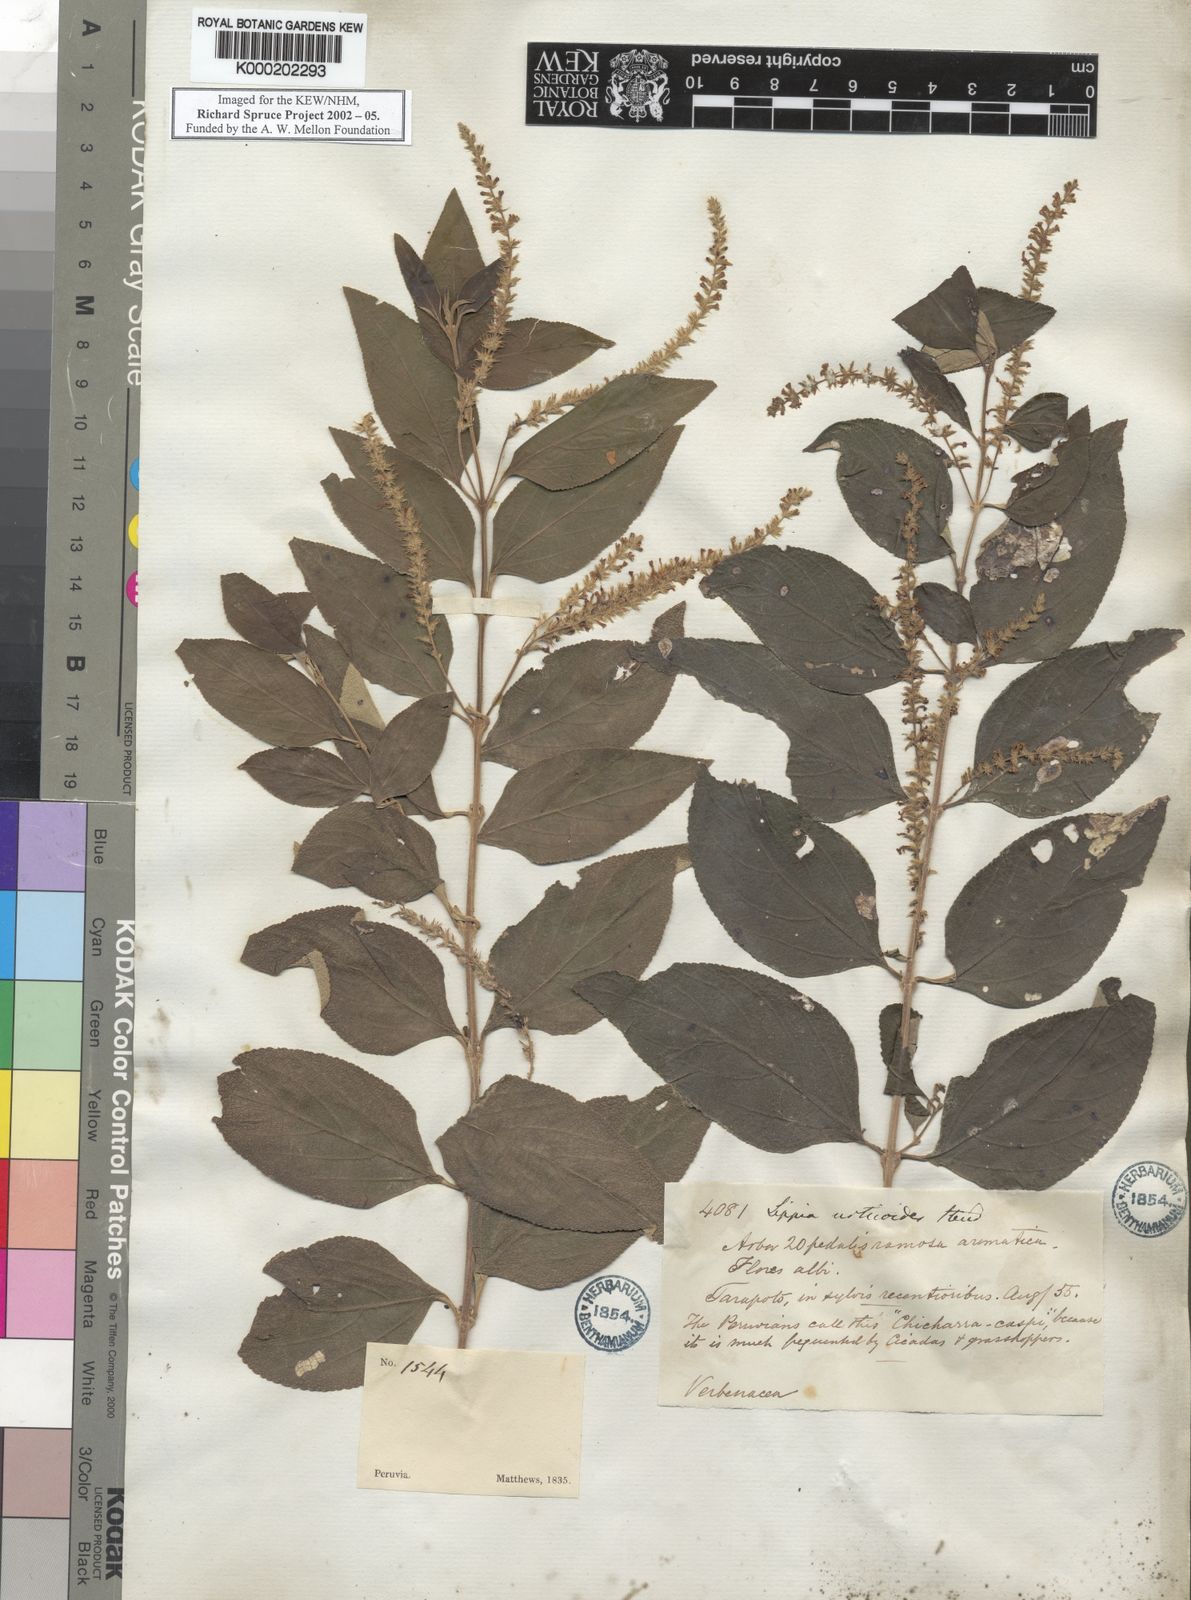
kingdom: Plantae
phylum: Tracheophyta
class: Magnoliopsida
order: Lamiales
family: Verbenaceae
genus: Aloysia
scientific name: Aloysia virgata
